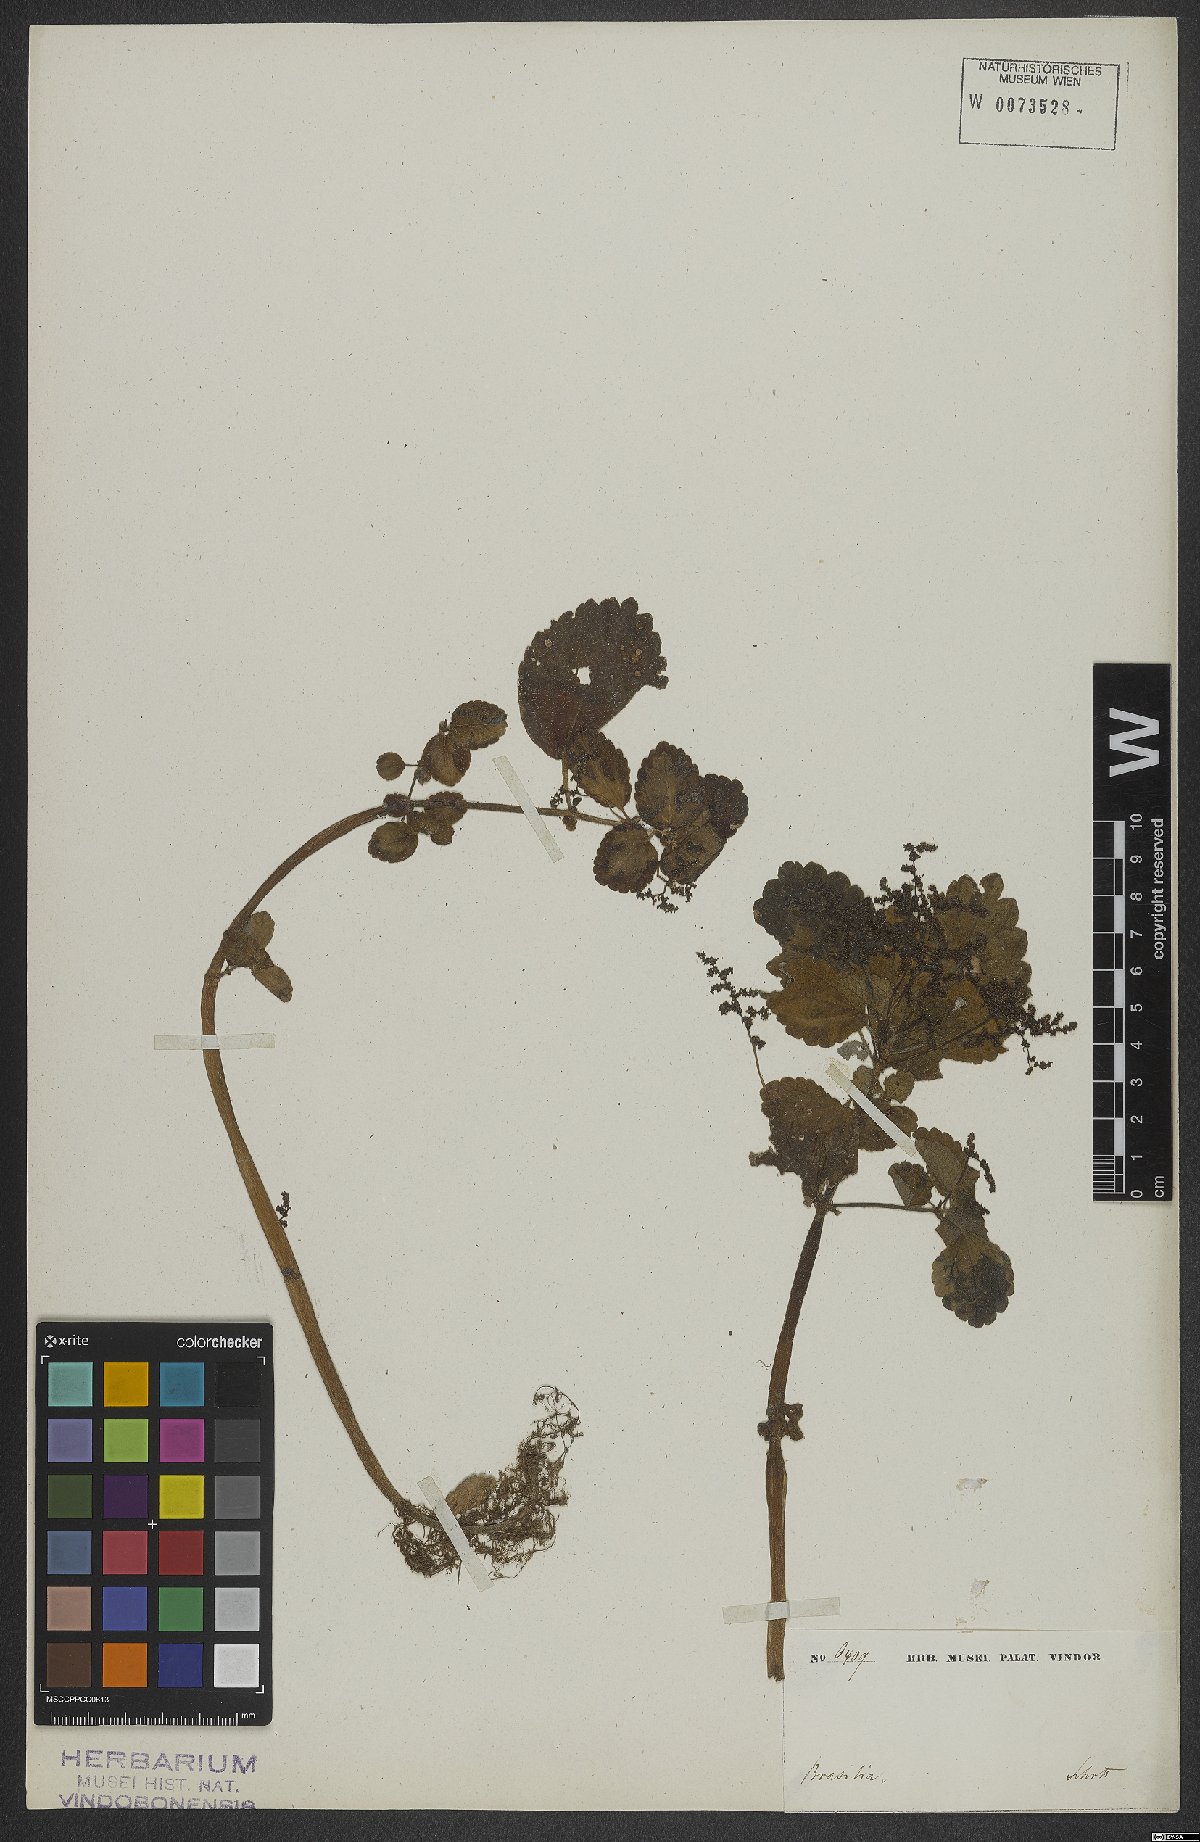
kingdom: Plantae
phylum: Tracheophyta
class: Magnoliopsida
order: Rosales
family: Urticaceae
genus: Pilea
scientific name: Pilea pubescens
